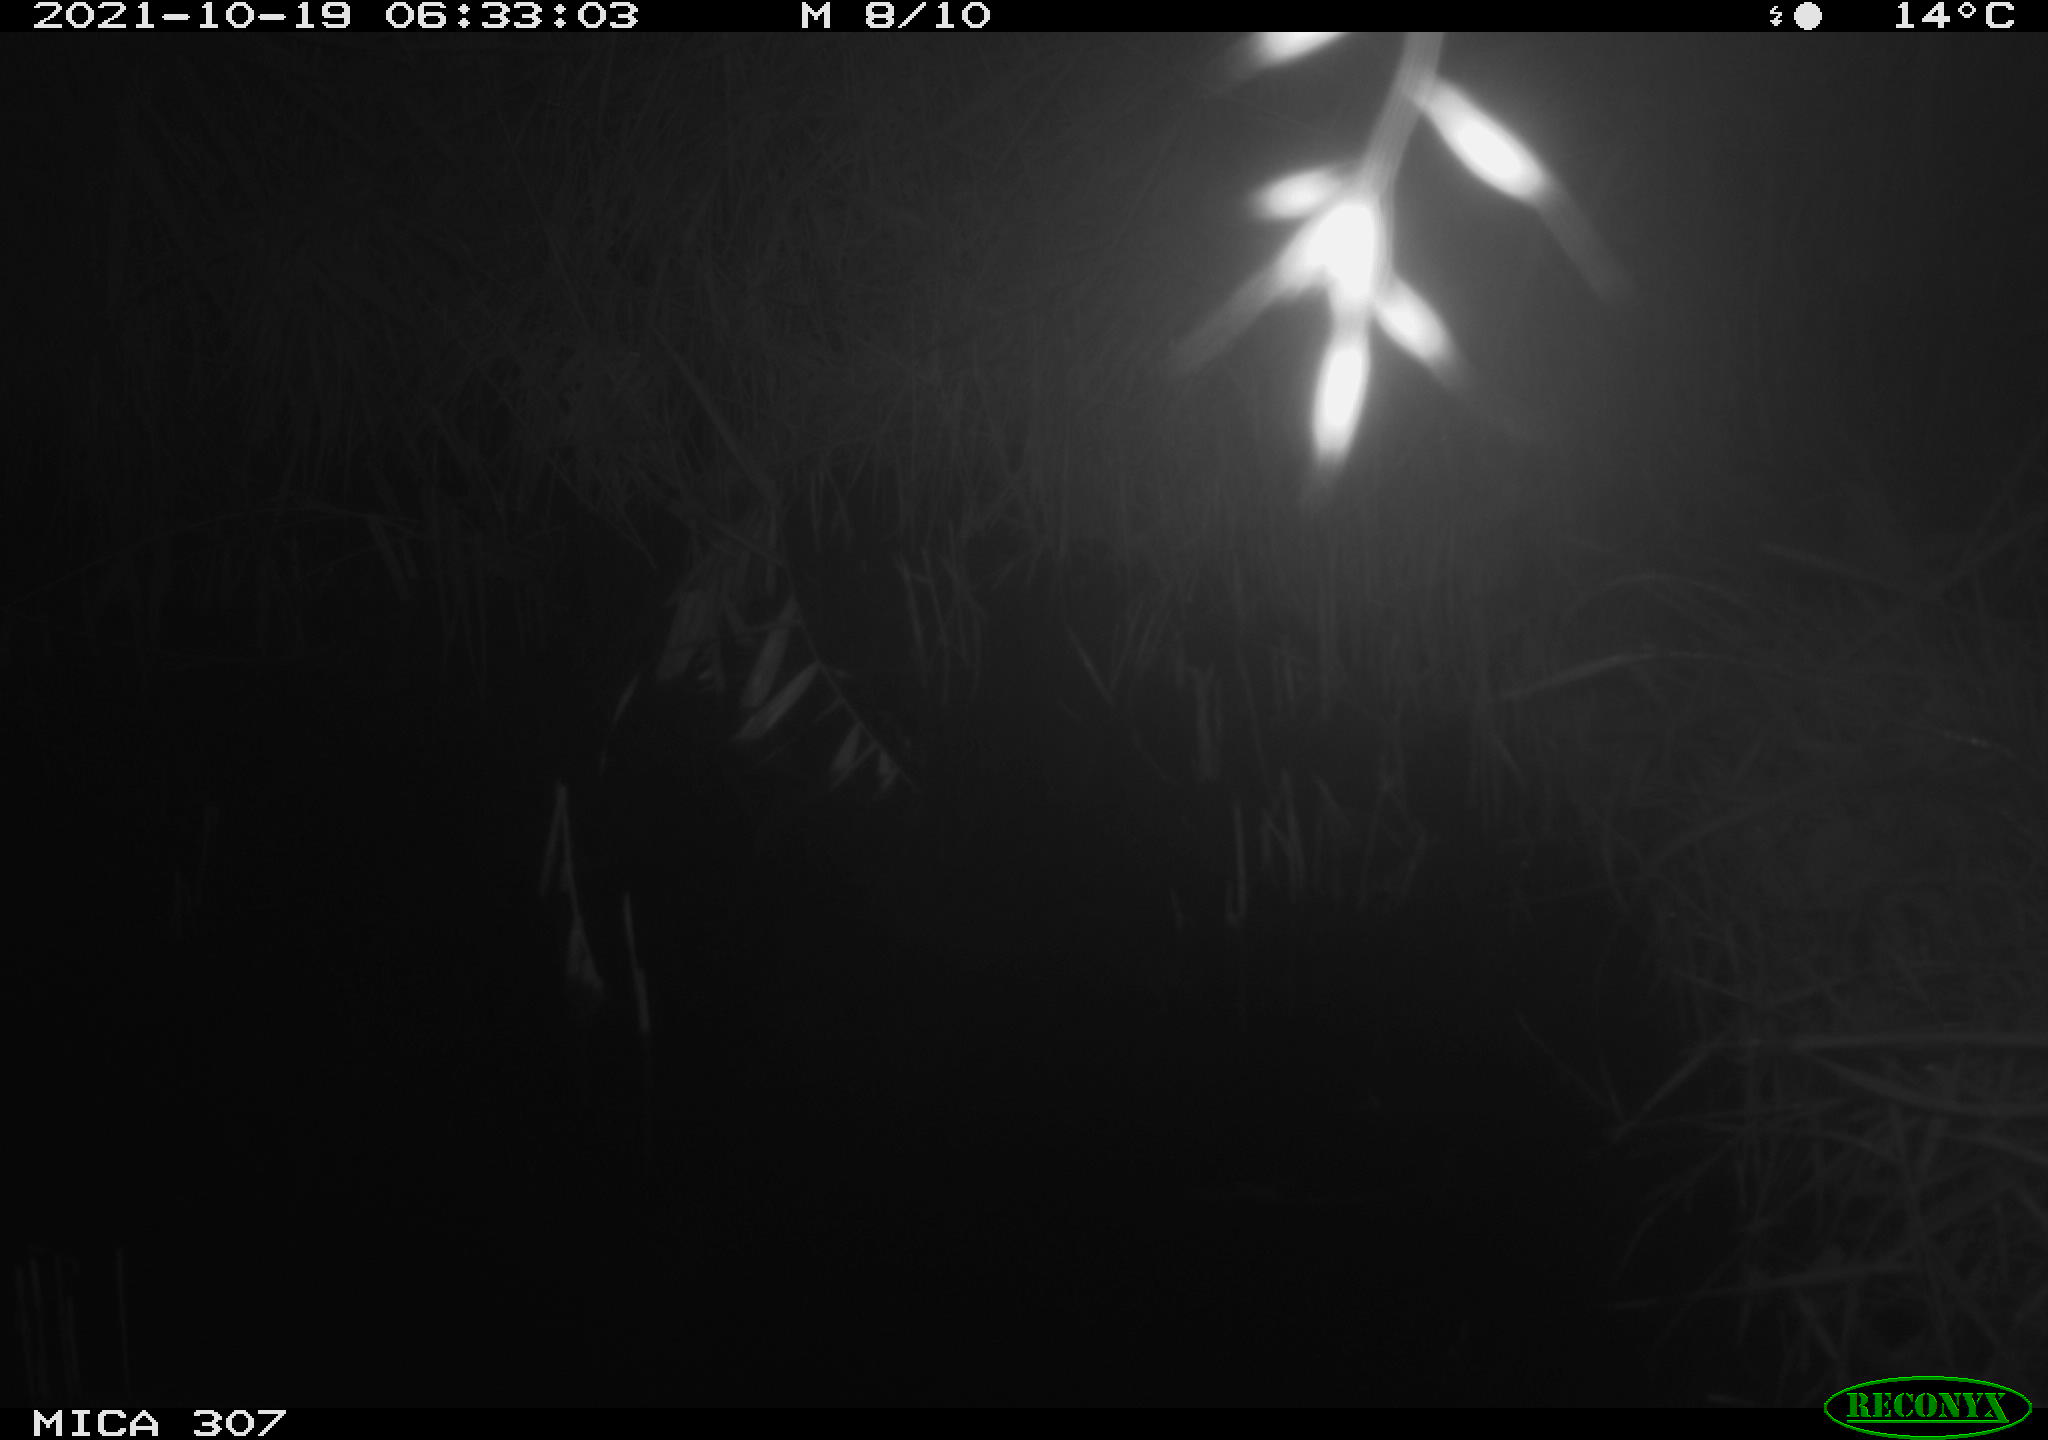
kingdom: Animalia
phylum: Chordata
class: Mammalia
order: Rodentia
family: Muridae
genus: Rattus
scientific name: Rattus norvegicus
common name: Brown rat
